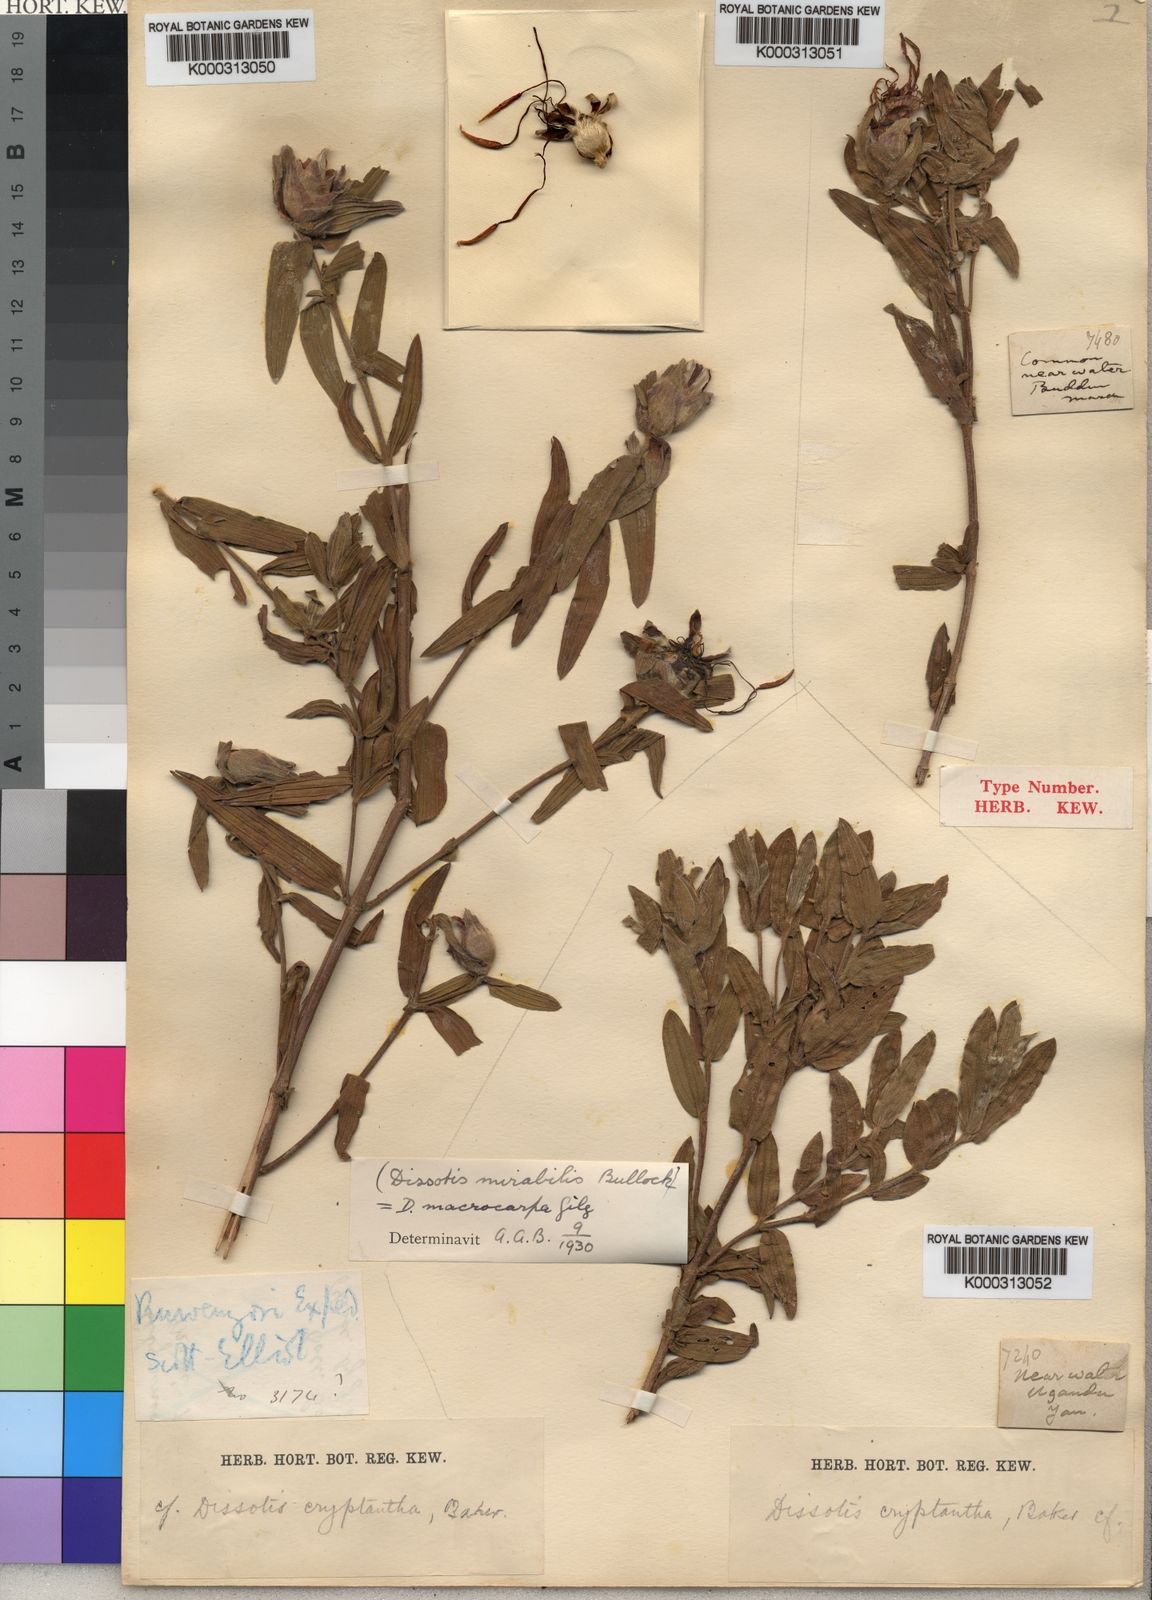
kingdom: Plantae
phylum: Tracheophyta
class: Magnoliopsida
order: Myrtales
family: Melastomataceae
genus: Feliciotis
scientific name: Feliciotis speciosa
